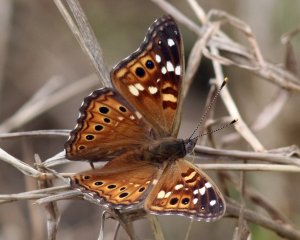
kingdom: Animalia
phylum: Arthropoda
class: Insecta
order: Lepidoptera
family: Nymphalidae
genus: Asterocampa
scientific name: Asterocampa leilia
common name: Empress Leilia
